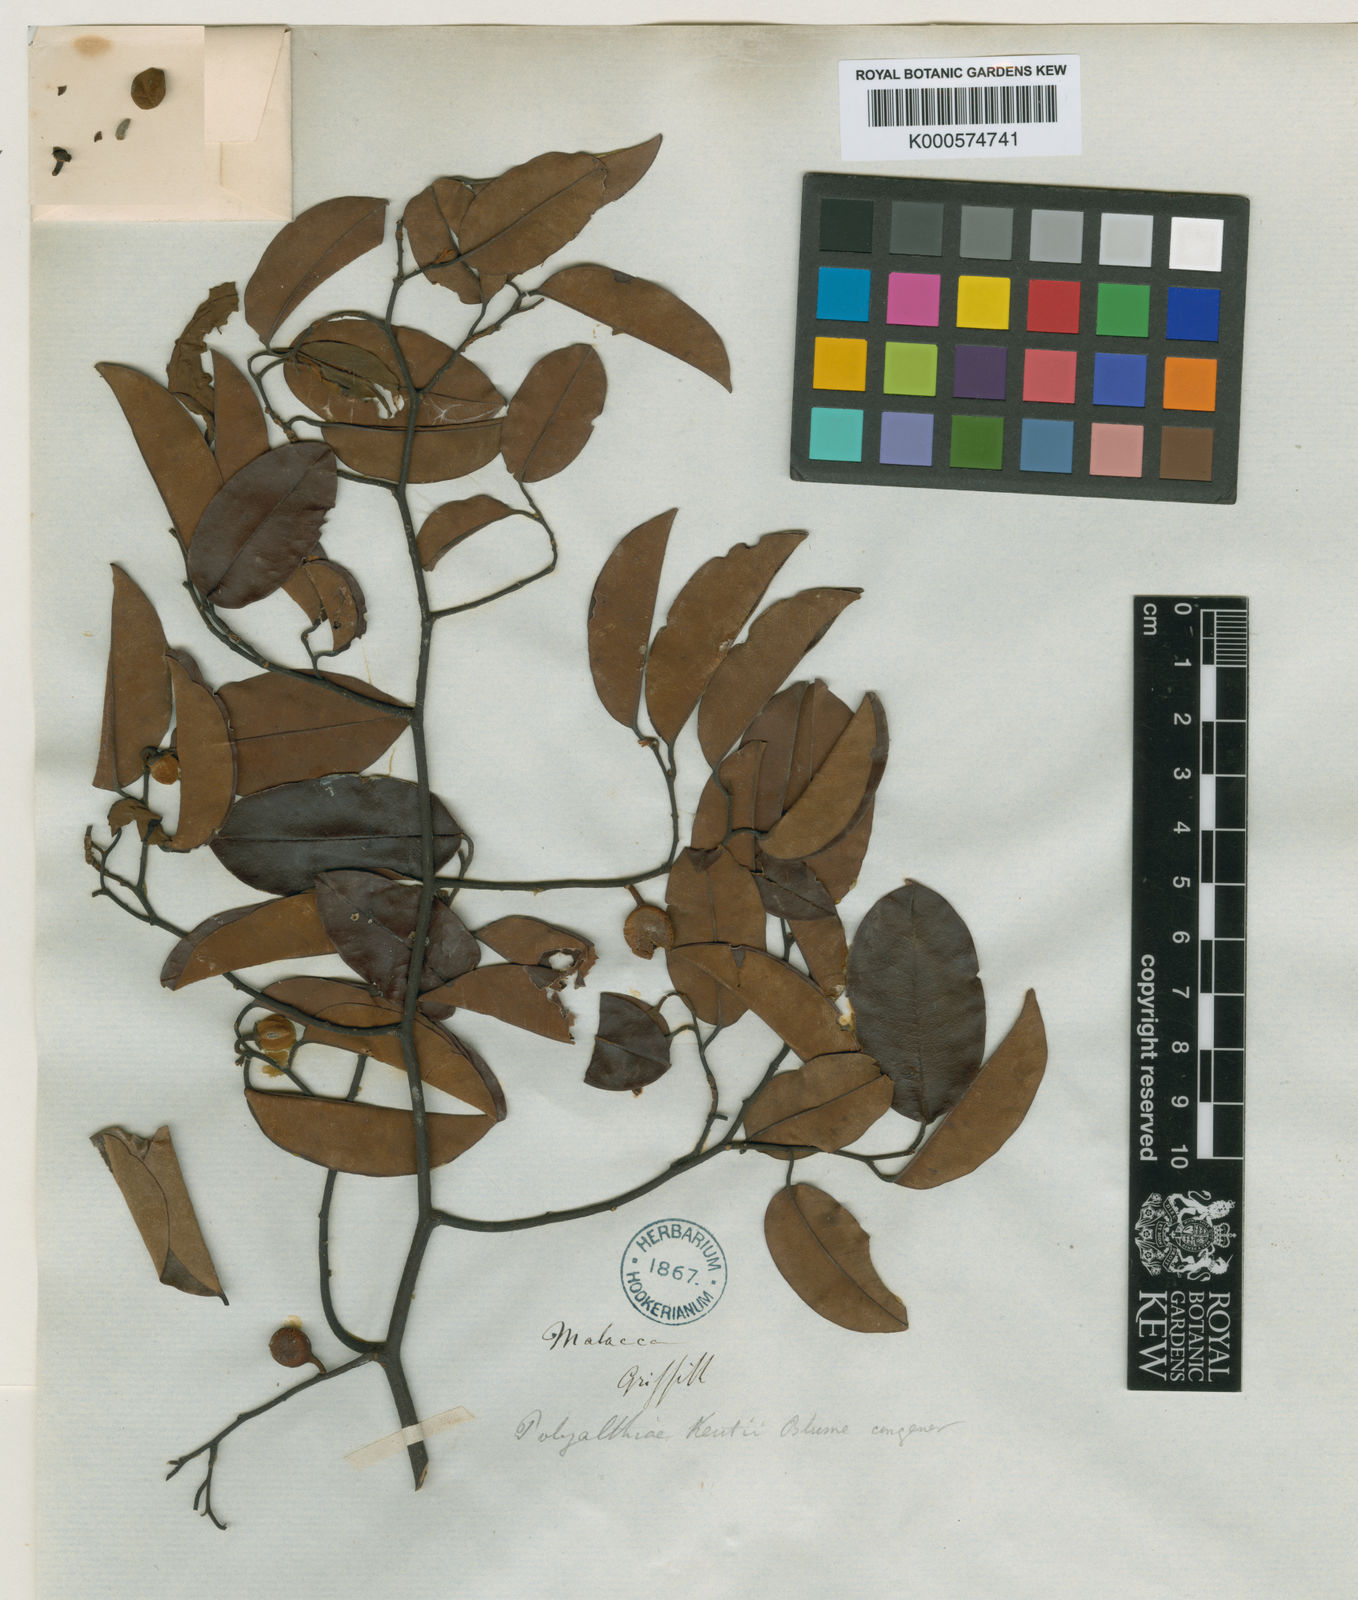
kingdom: Plantae
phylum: Tracheophyta
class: Magnoliopsida
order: Magnoliales
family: Annonaceae
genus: Mitrella
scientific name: Mitrella kentii
